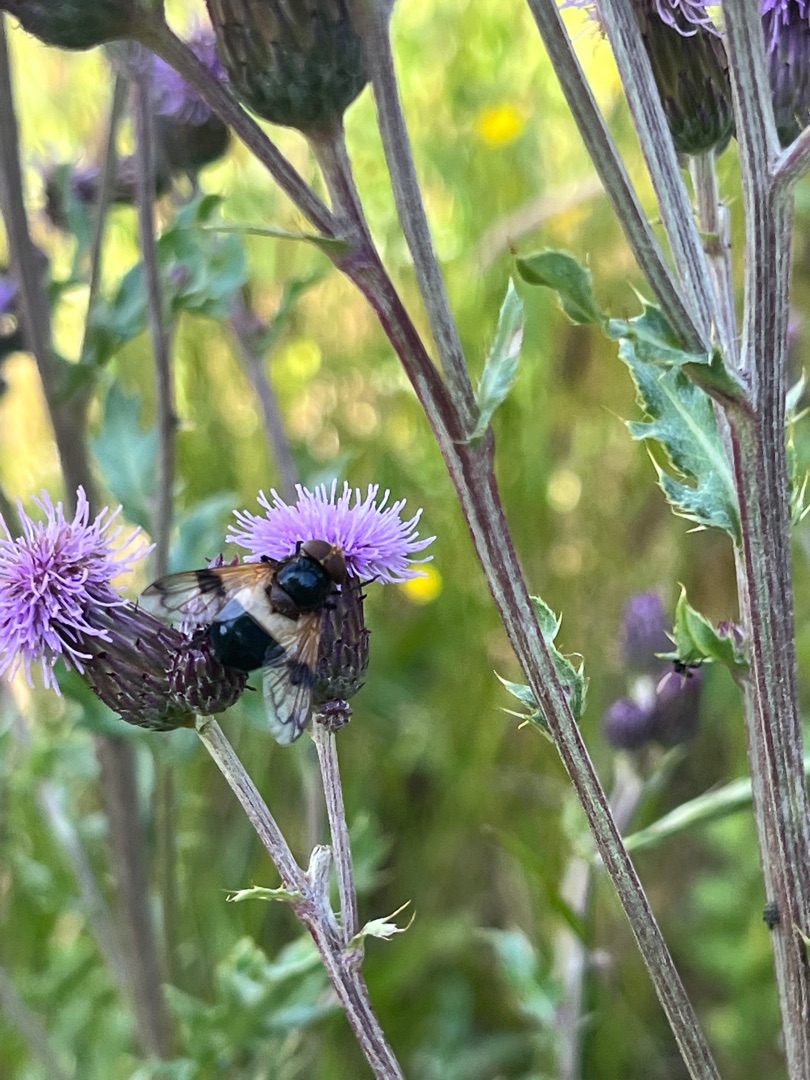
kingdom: Animalia
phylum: Arthropoda
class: Insecta
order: Diptera
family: Syrphidae
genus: Volucella
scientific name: Volucella pellucens
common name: Hvidbåndet humlesvirreflue
